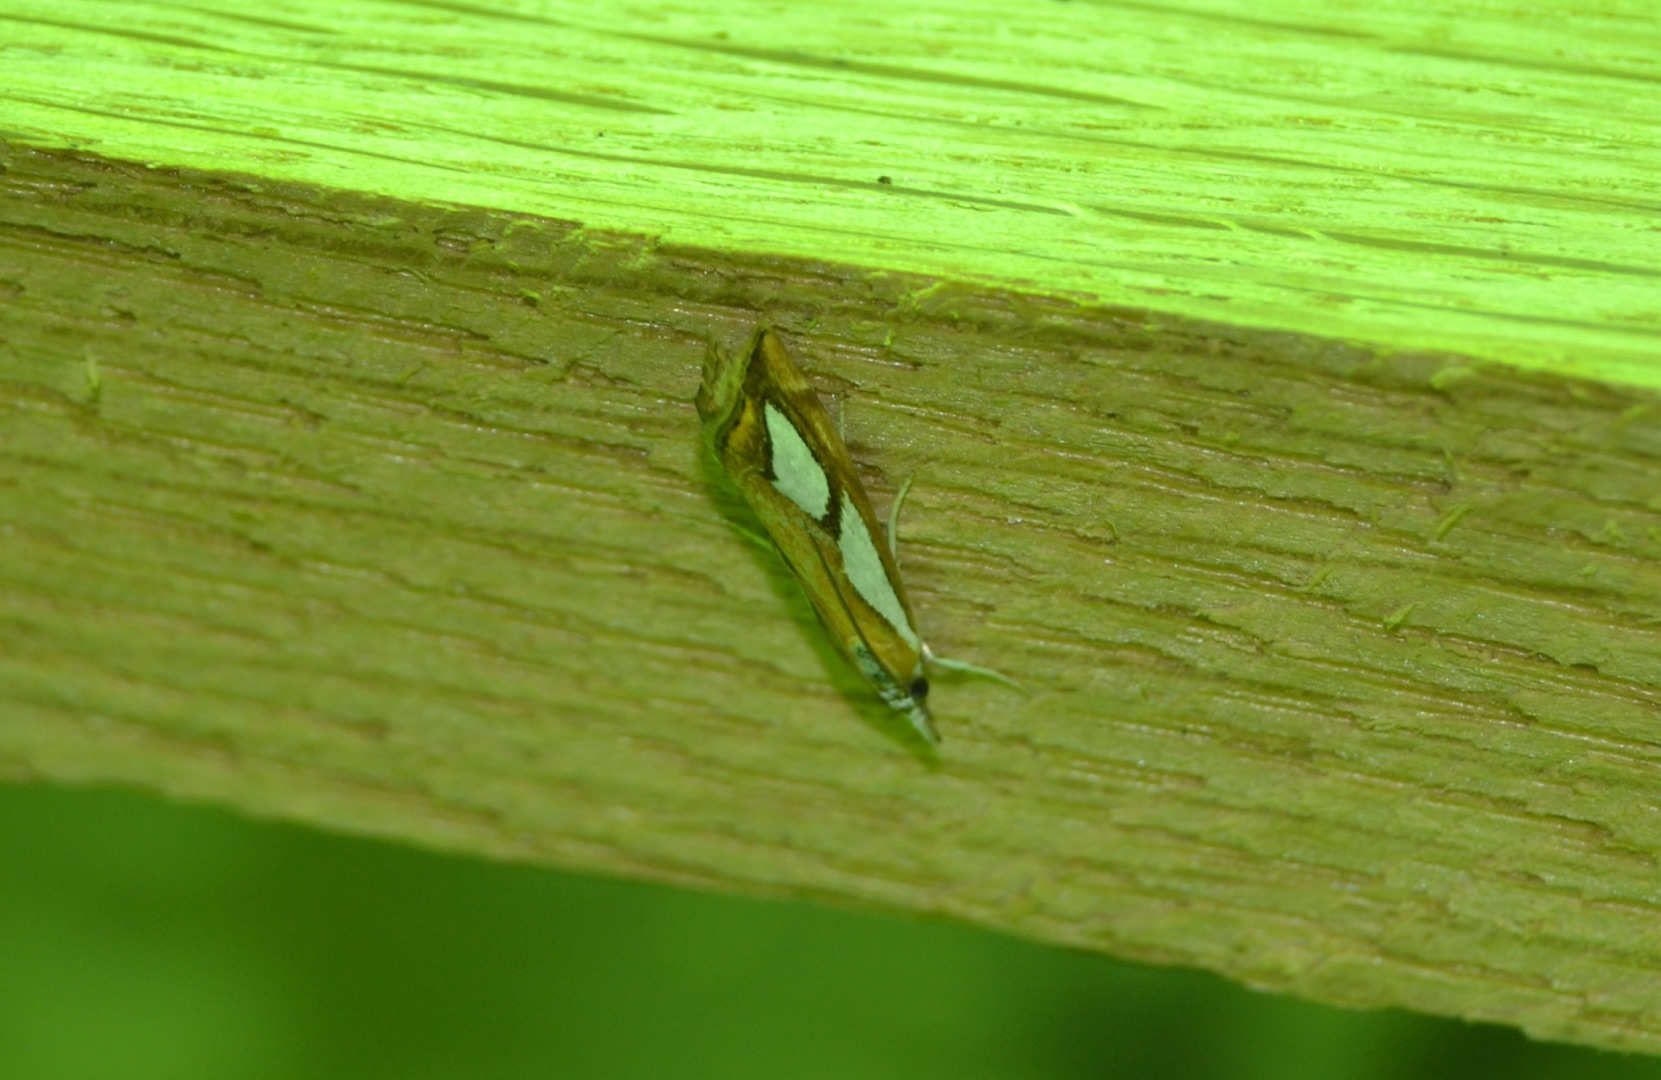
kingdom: Animalia
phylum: Arthropoda
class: Insecta
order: Lepidoptera
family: Crambidae
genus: Catoptria
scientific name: Catoptria pinella
